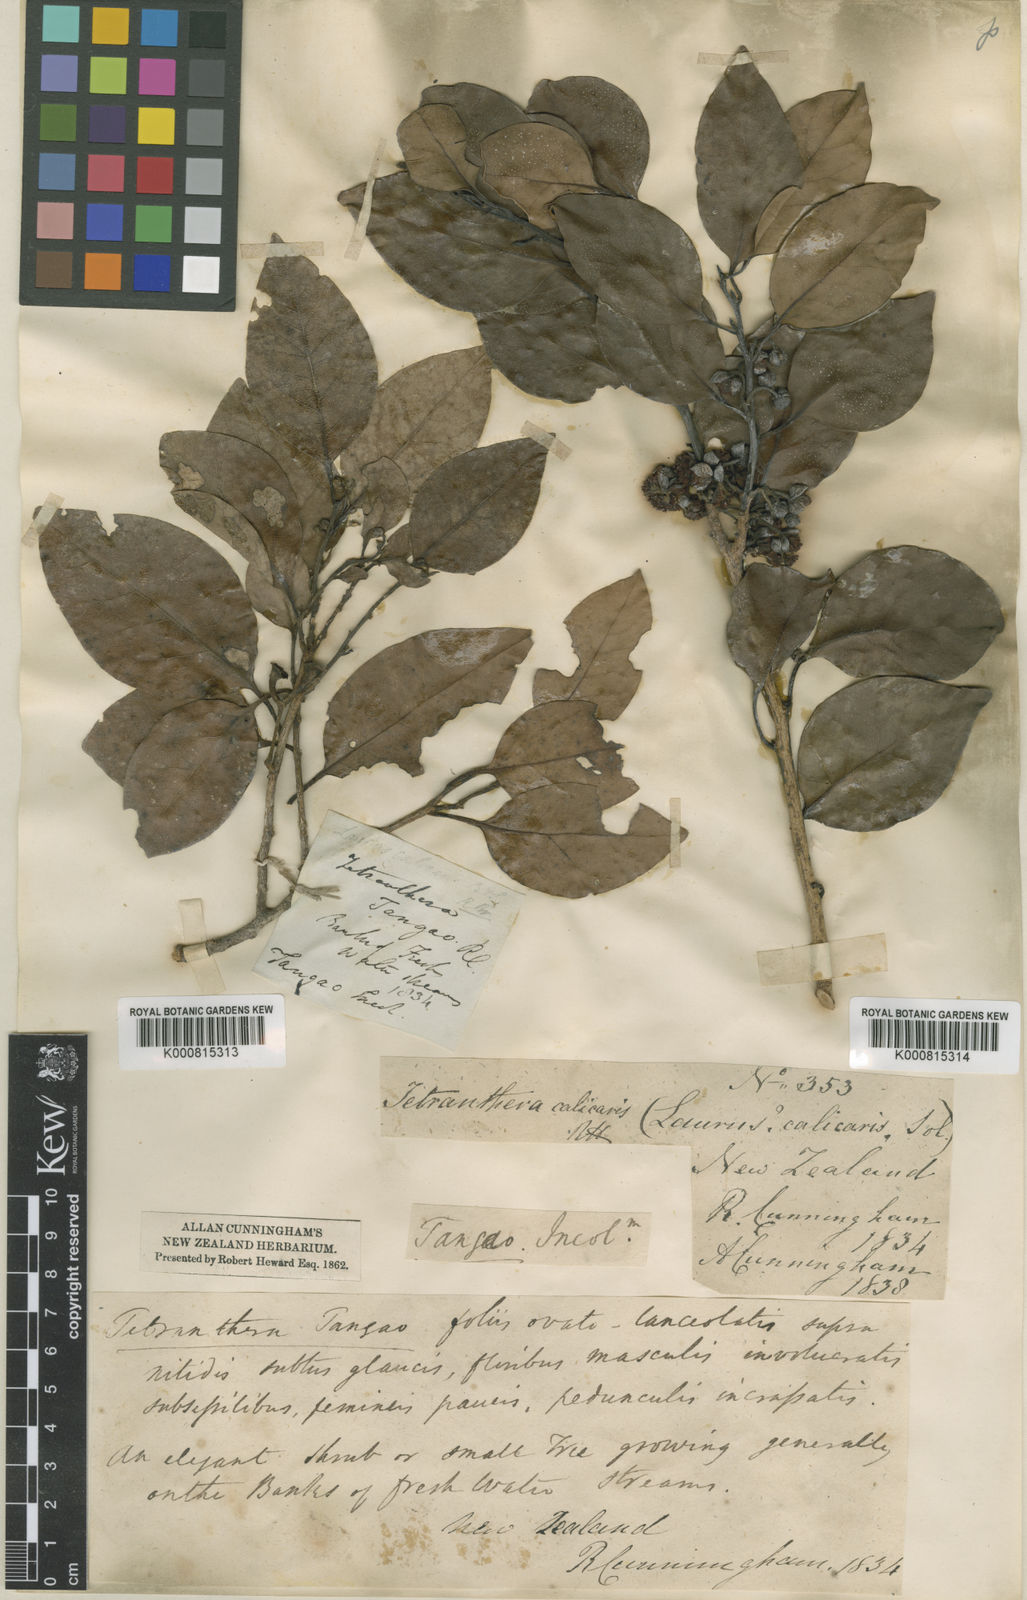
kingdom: Plantae
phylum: Tracheophyta
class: Magnoliopsida
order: Laurales
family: Lauraceae
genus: Litsea
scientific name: Litsea calicaris
